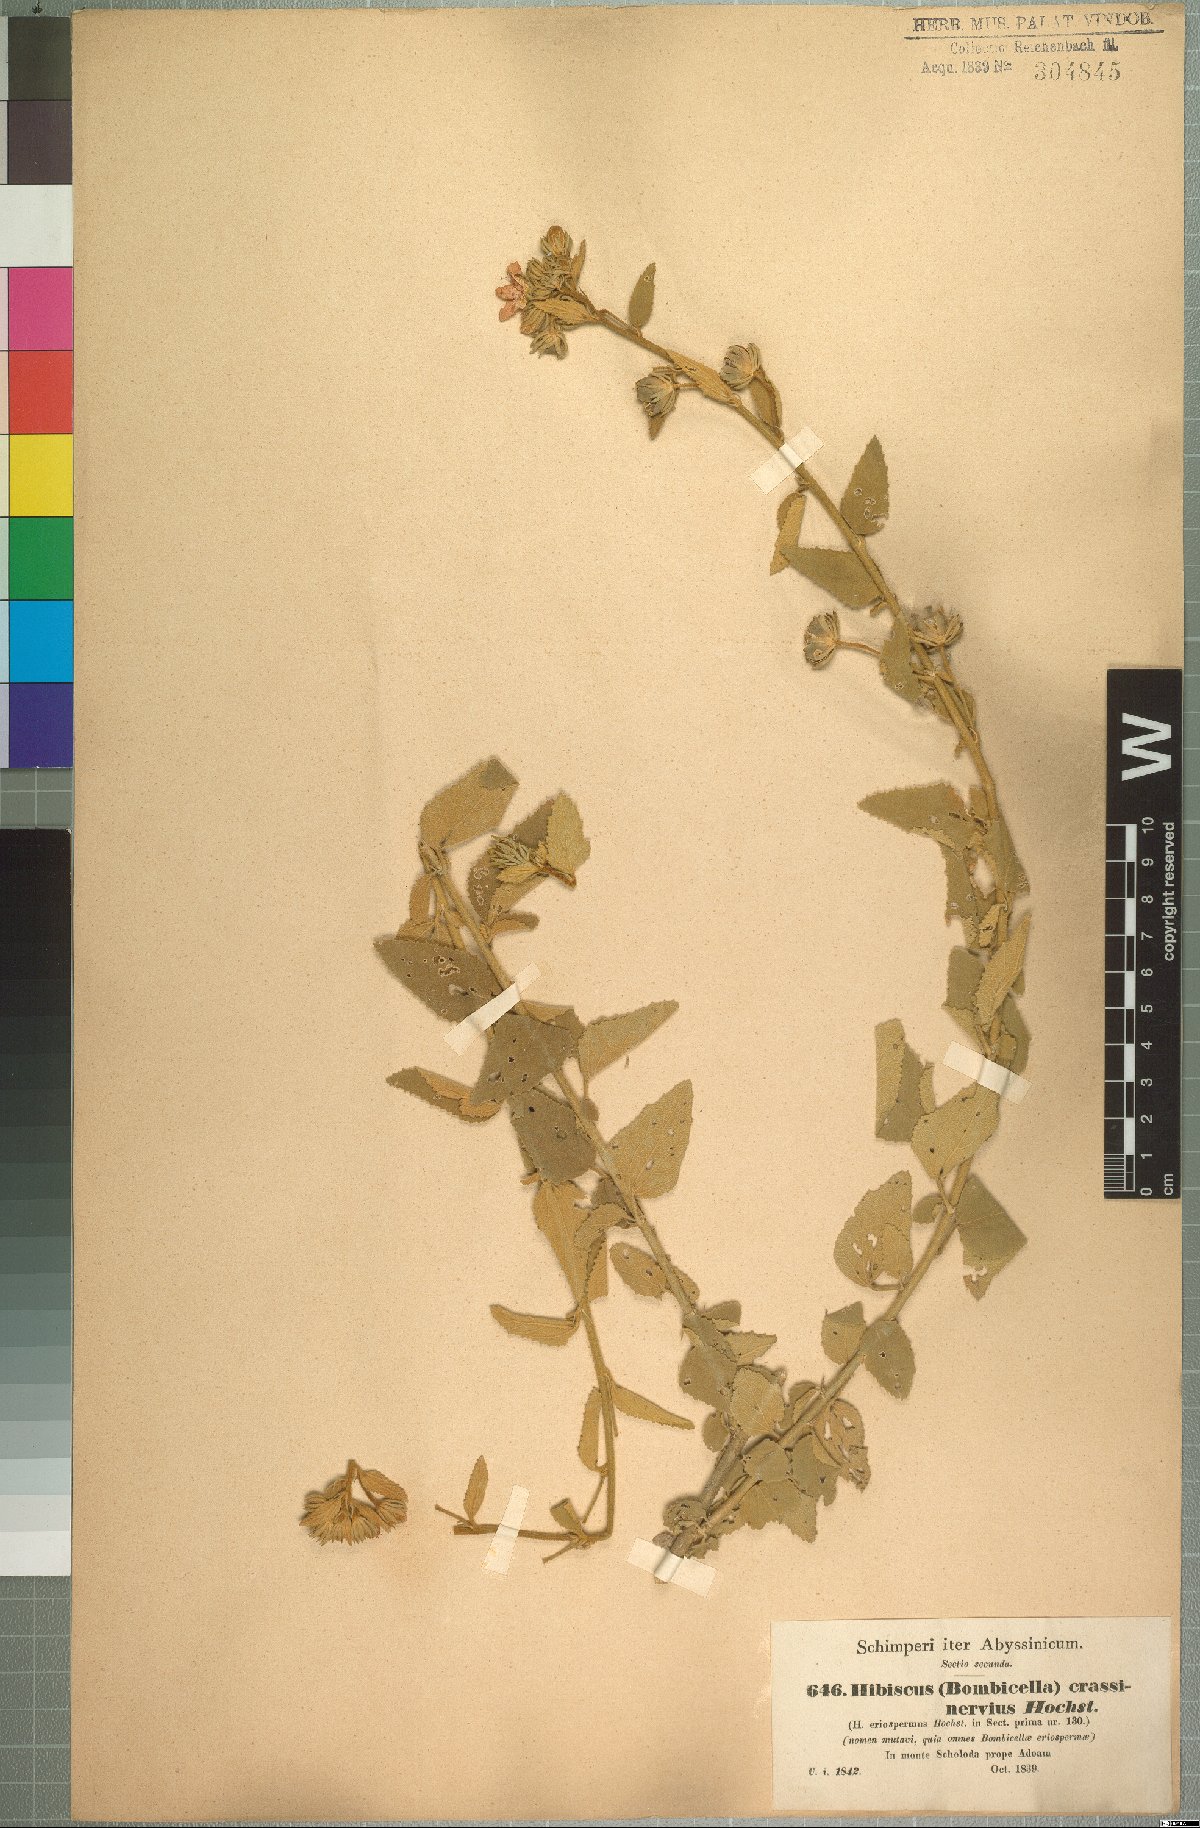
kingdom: Plantae
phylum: Tracheophyta
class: Magnoliopsida
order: Malvales
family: Malvaceae
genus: Hibiscus
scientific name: Hibiscus crassinervius
